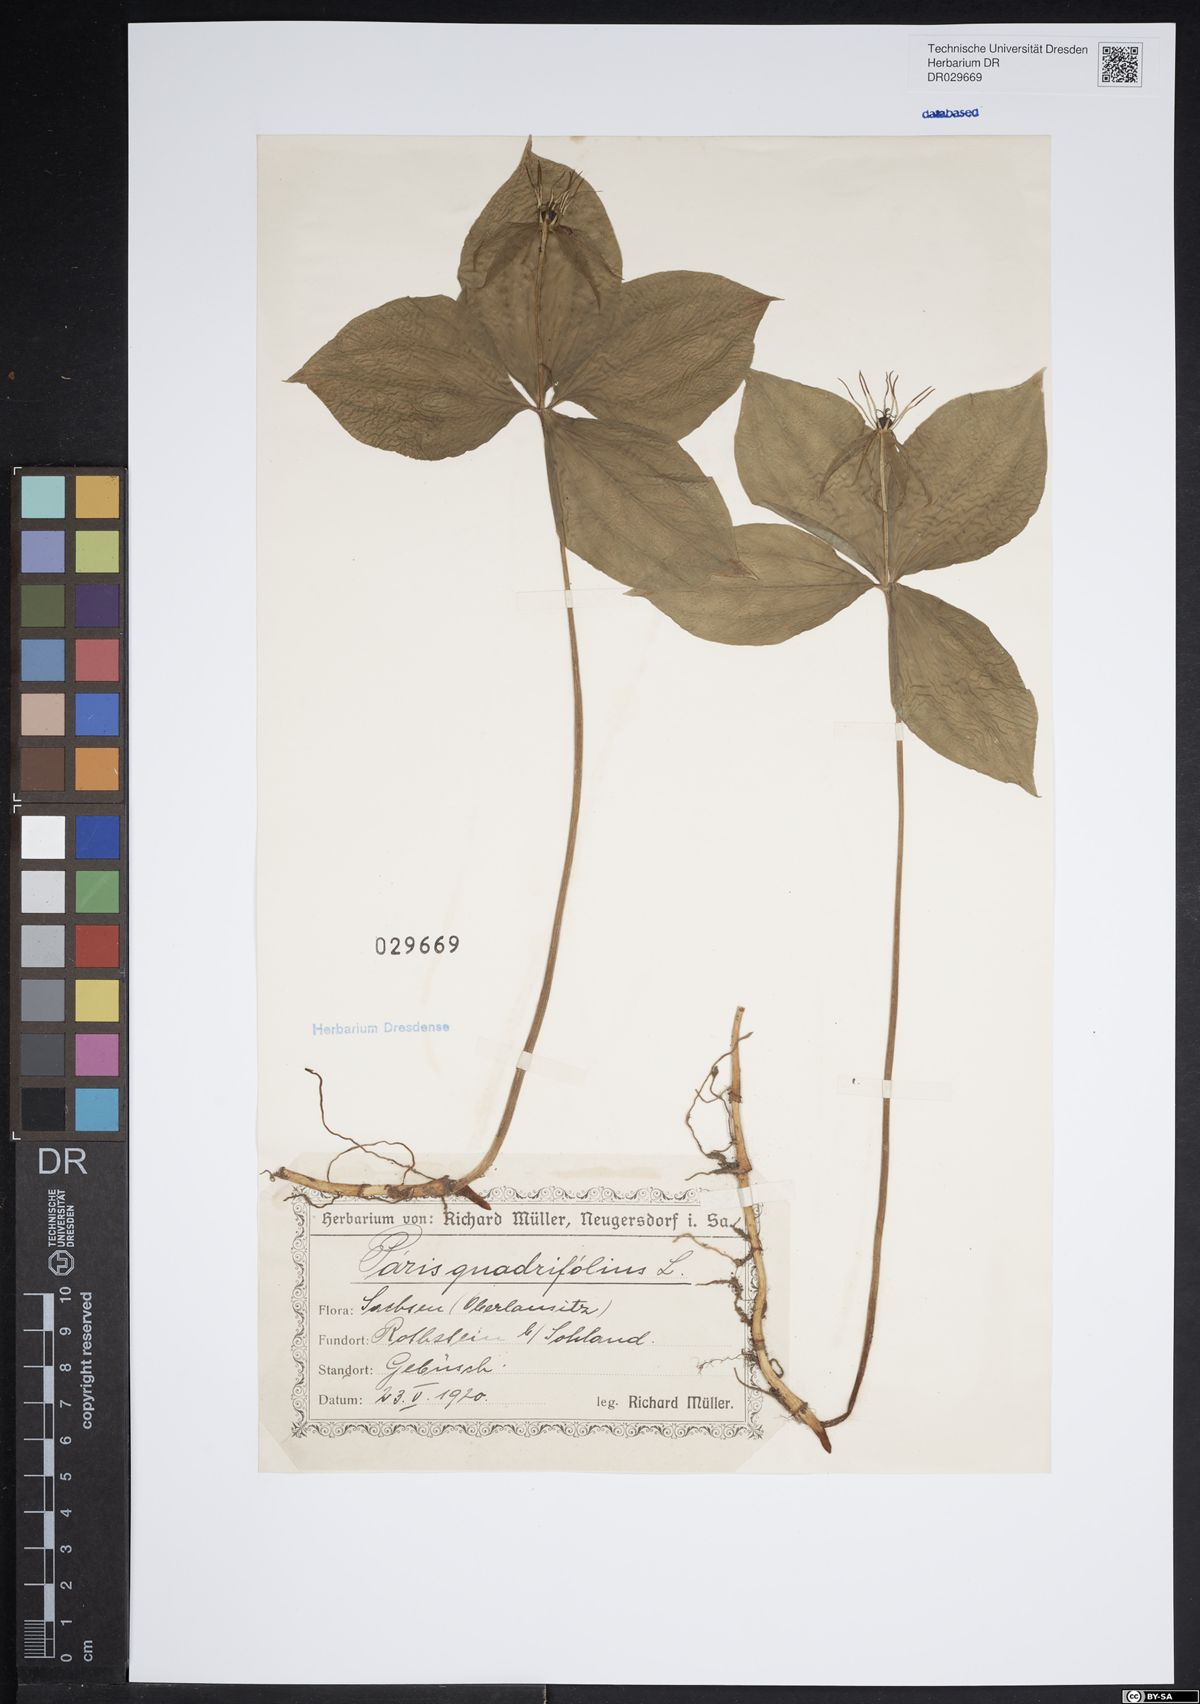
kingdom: Plantae
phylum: Tracheophyta
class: Liliopsida
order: Liliales
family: Melanthiaceae
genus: Paris
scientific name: Paris quadrifolia
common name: Herb-paris
